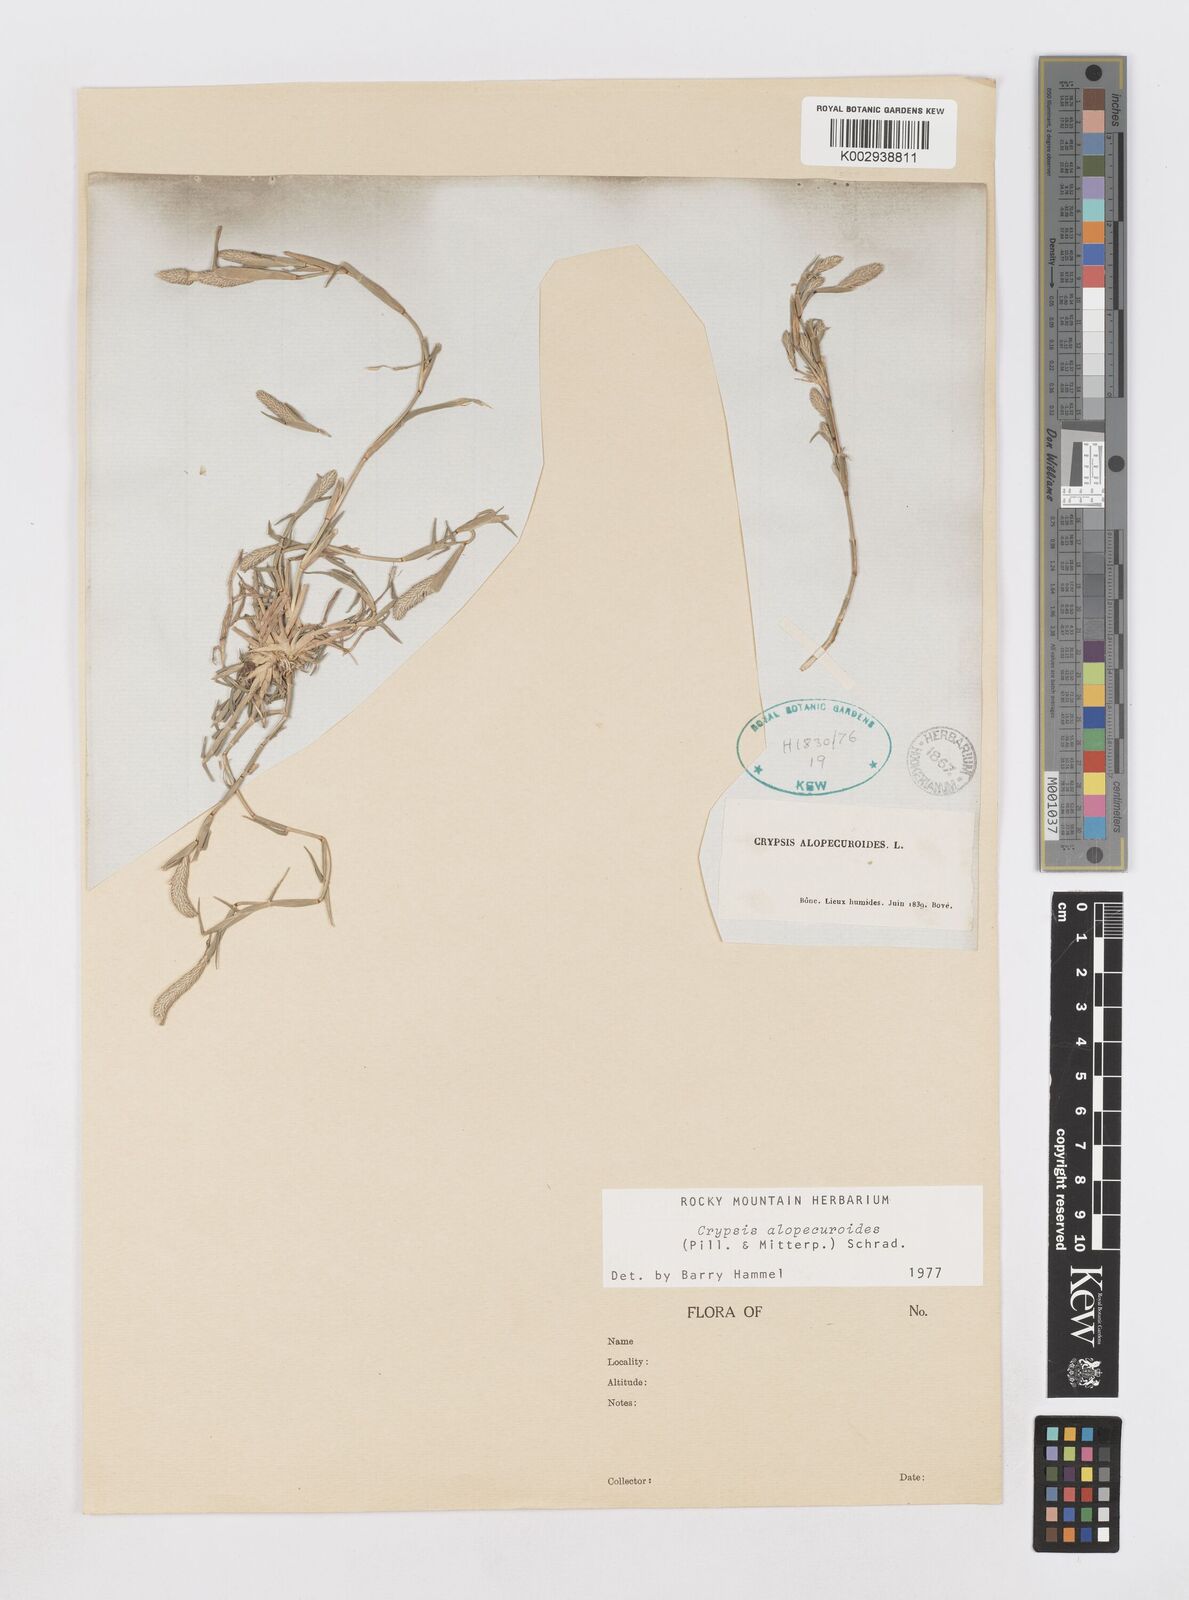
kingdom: Plantae
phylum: Tracheophyta
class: Liliopsida
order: Poales
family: Poaceae
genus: Sporobolus
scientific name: Sporobolus alopecuroides
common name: Foxtail pricklegrass
